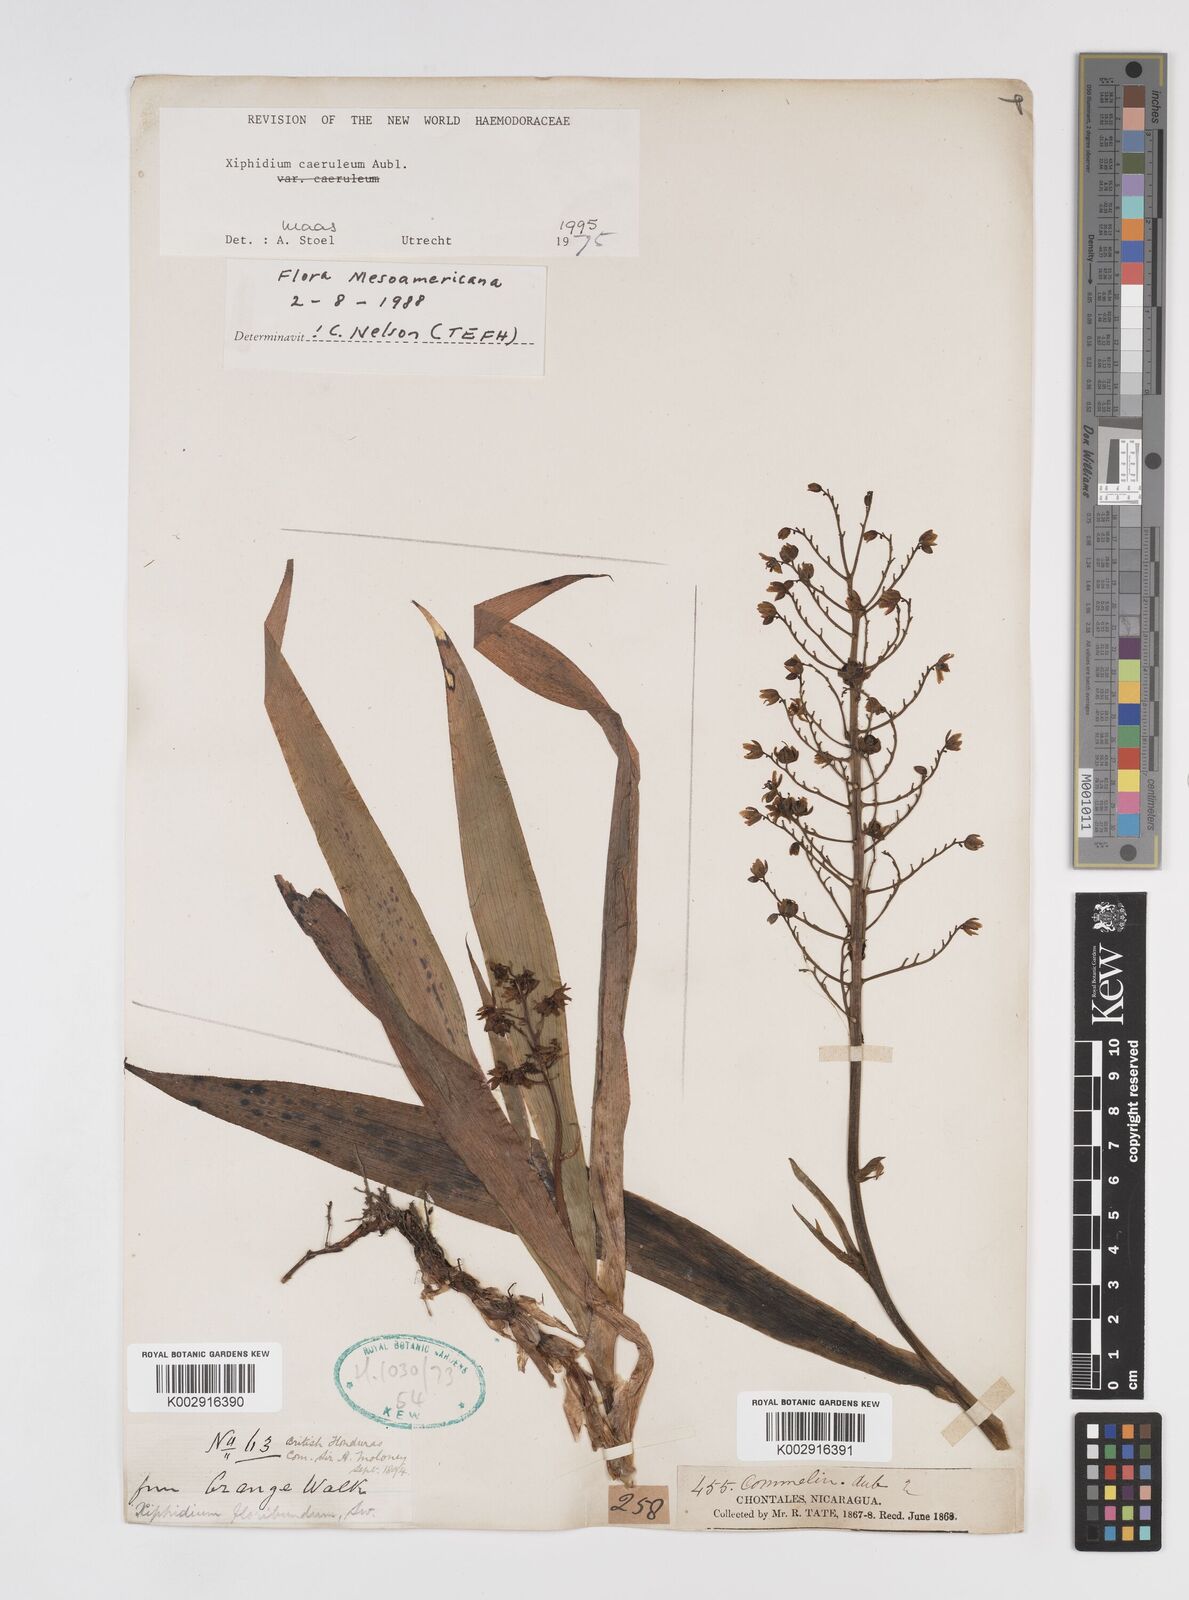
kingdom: Plantae
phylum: Tracheophyta
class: Liliopsida
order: Commelinales
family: Haemodoraceae
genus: Xiphidium
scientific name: Xiphidium caeruleum
